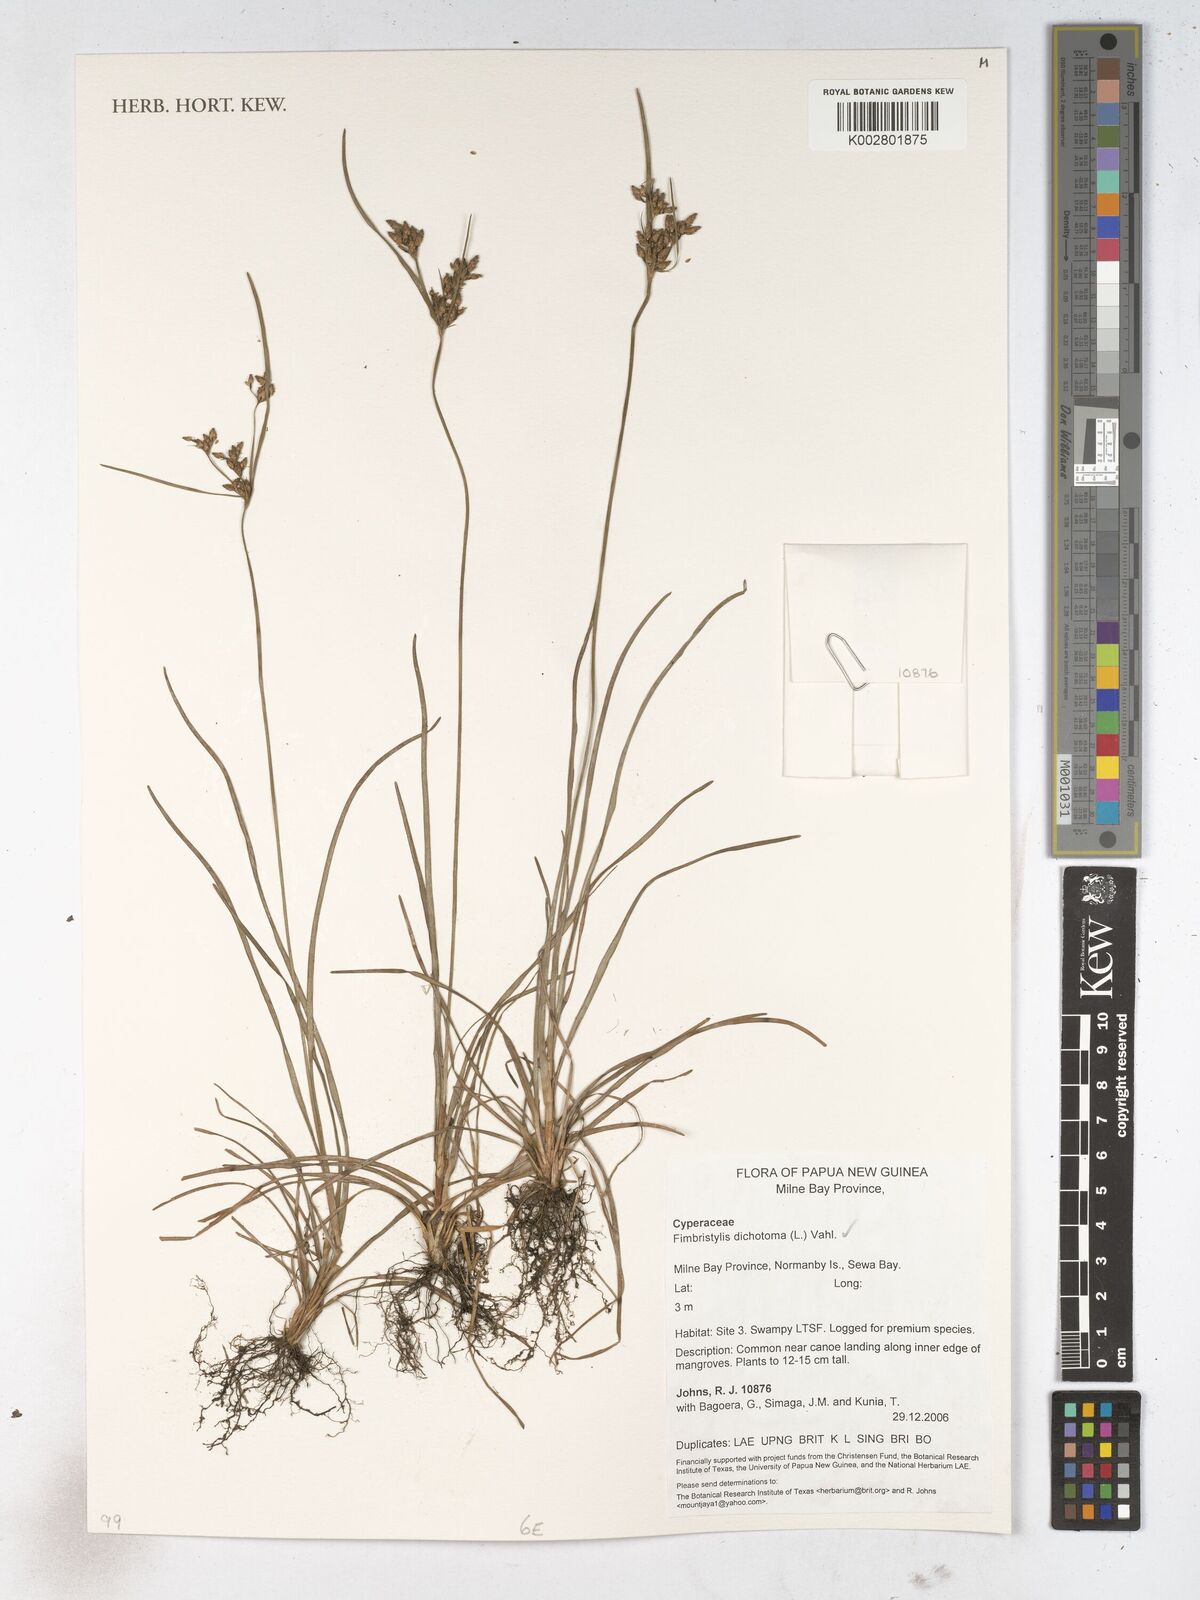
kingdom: Plantae
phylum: Tracheophyta
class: Liliopsida
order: Poales
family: Cyperaceae
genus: Fimbristylis
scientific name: Fimbristylis dichotoma
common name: Forked fimbry
